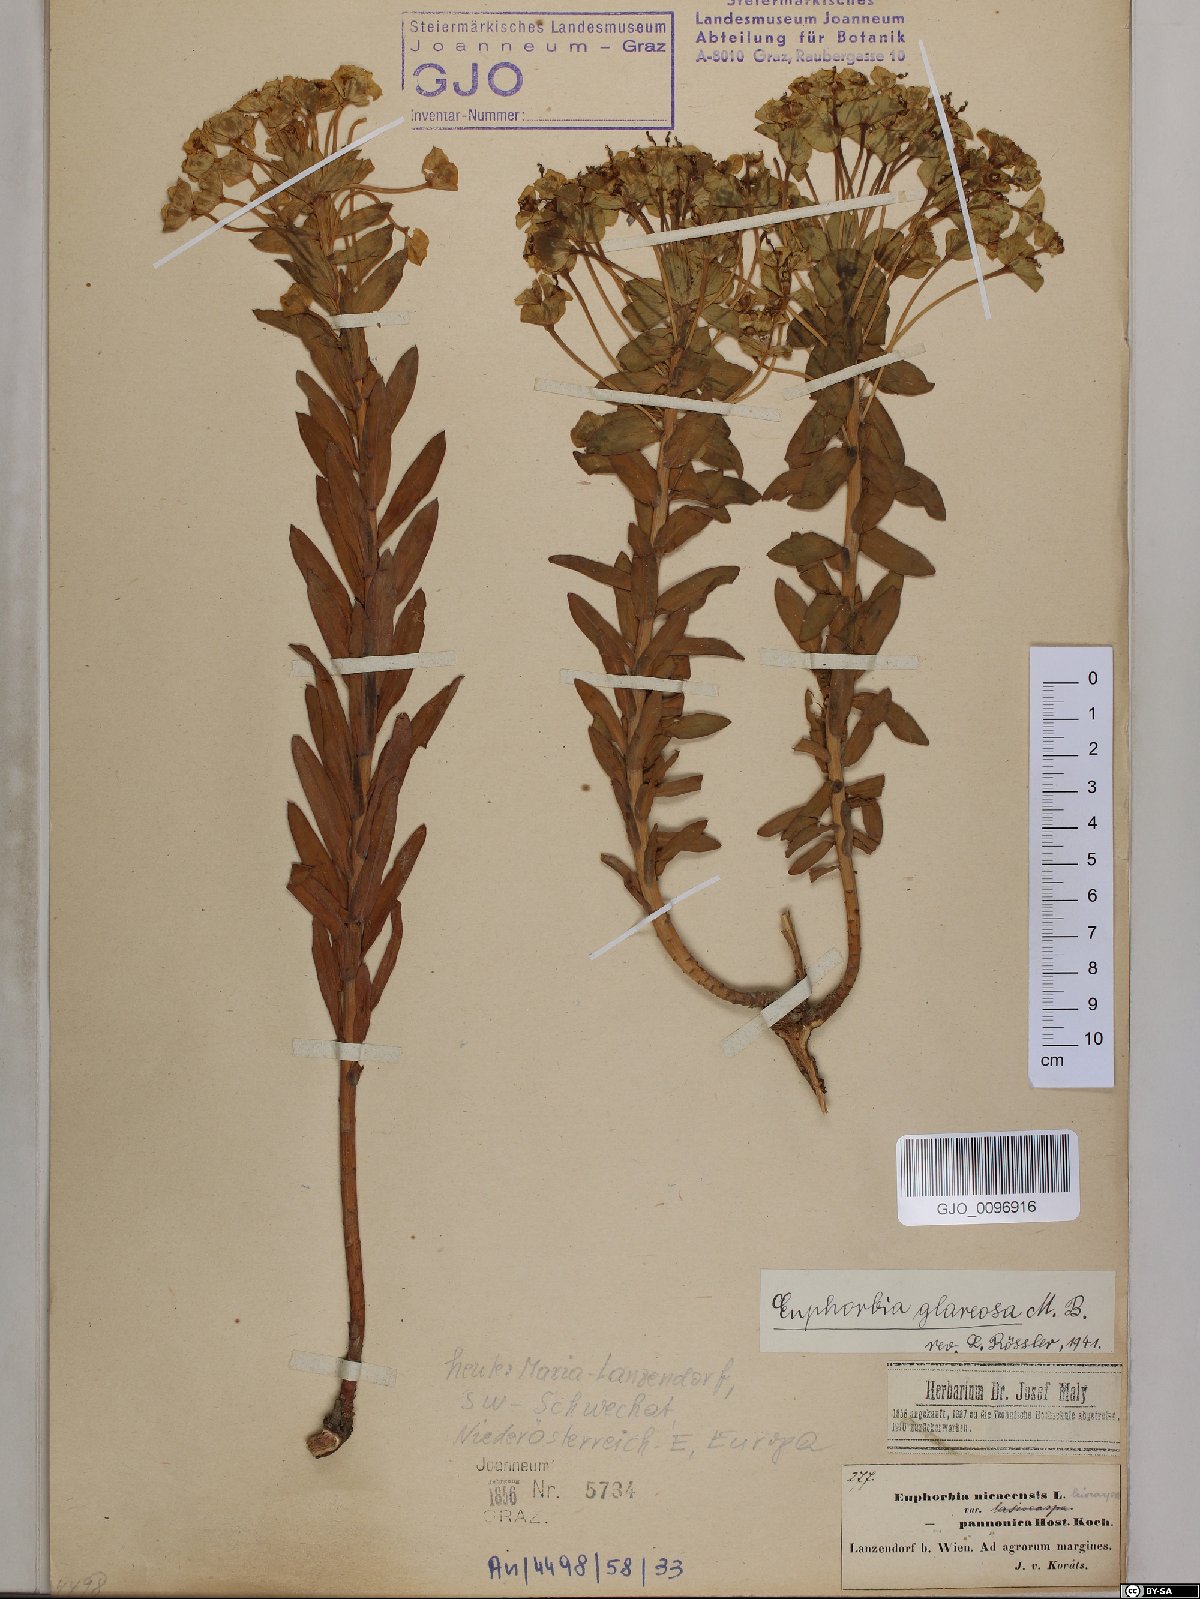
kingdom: Plantae
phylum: Tracheophyta
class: Magnoliopsida
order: Malpighiales
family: Euphorbiaceae
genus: Euphorbia
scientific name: Euphorbia glareosa
